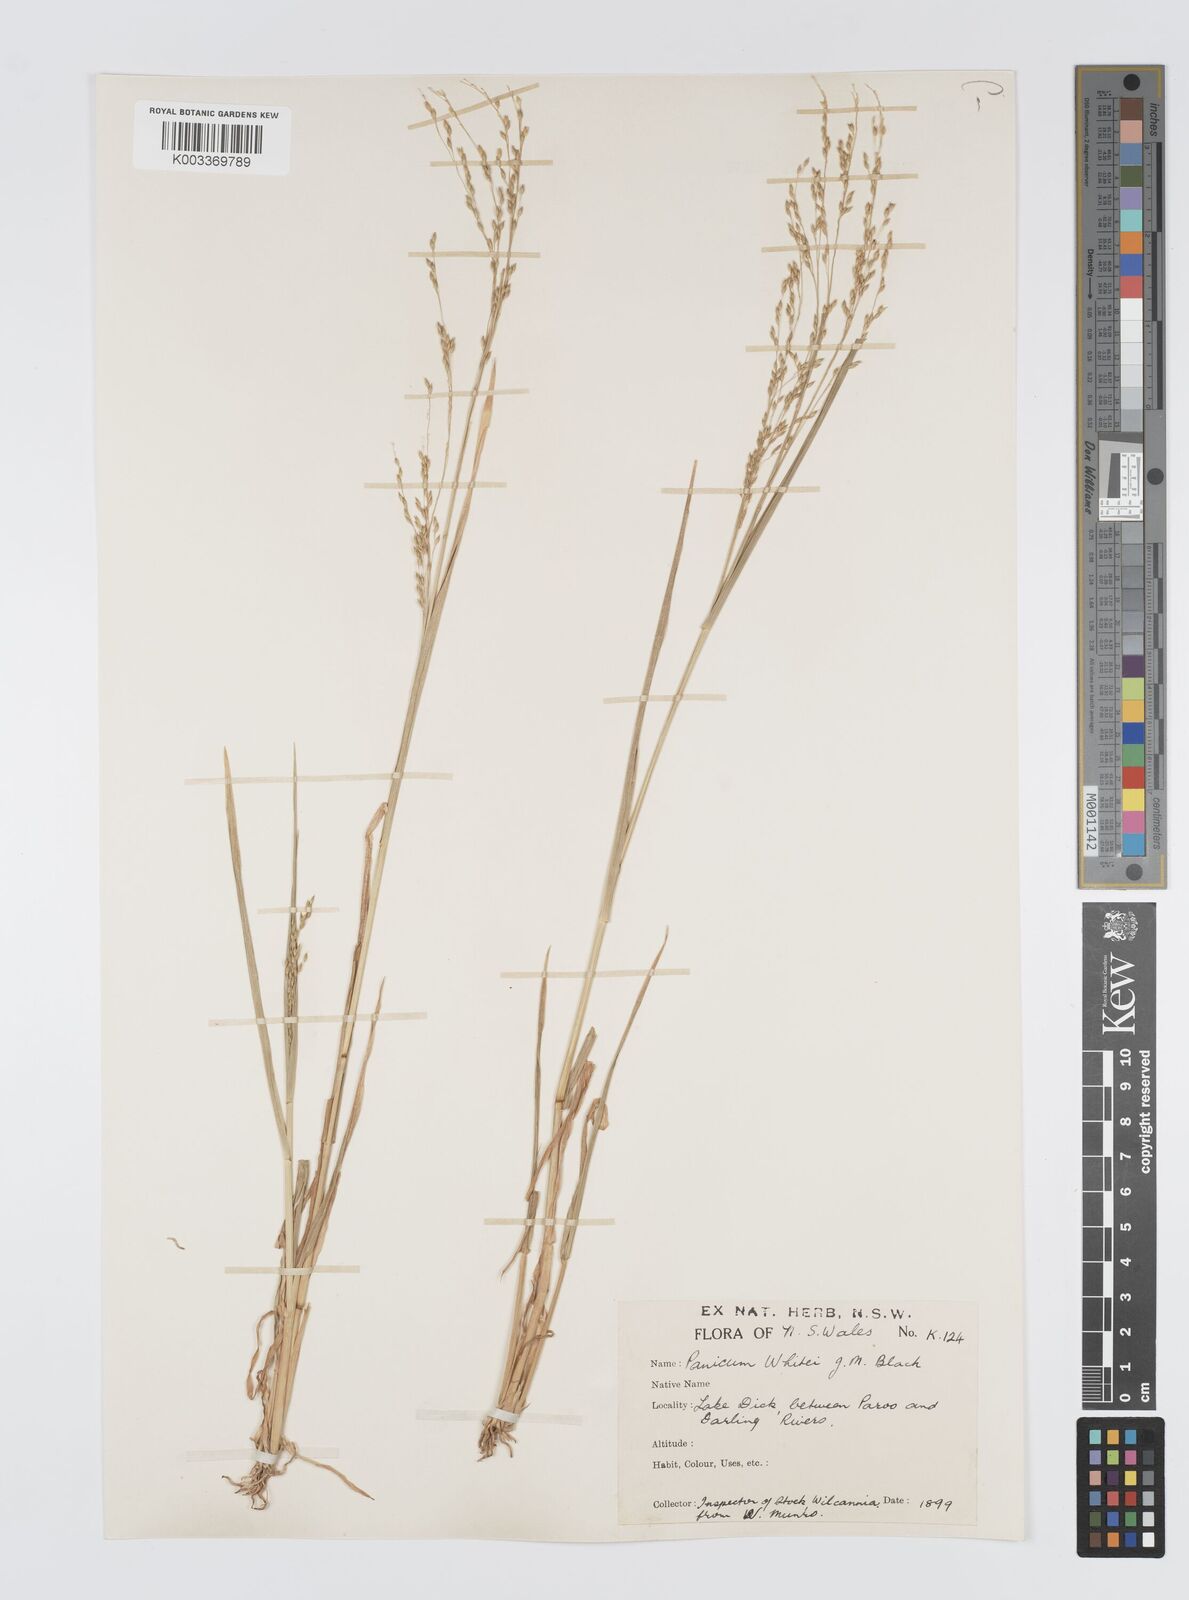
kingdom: Plantae
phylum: Tracheophyta
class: Liliopsida
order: Poales
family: Poaceae
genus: Panicum
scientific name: Panicum laevinode
